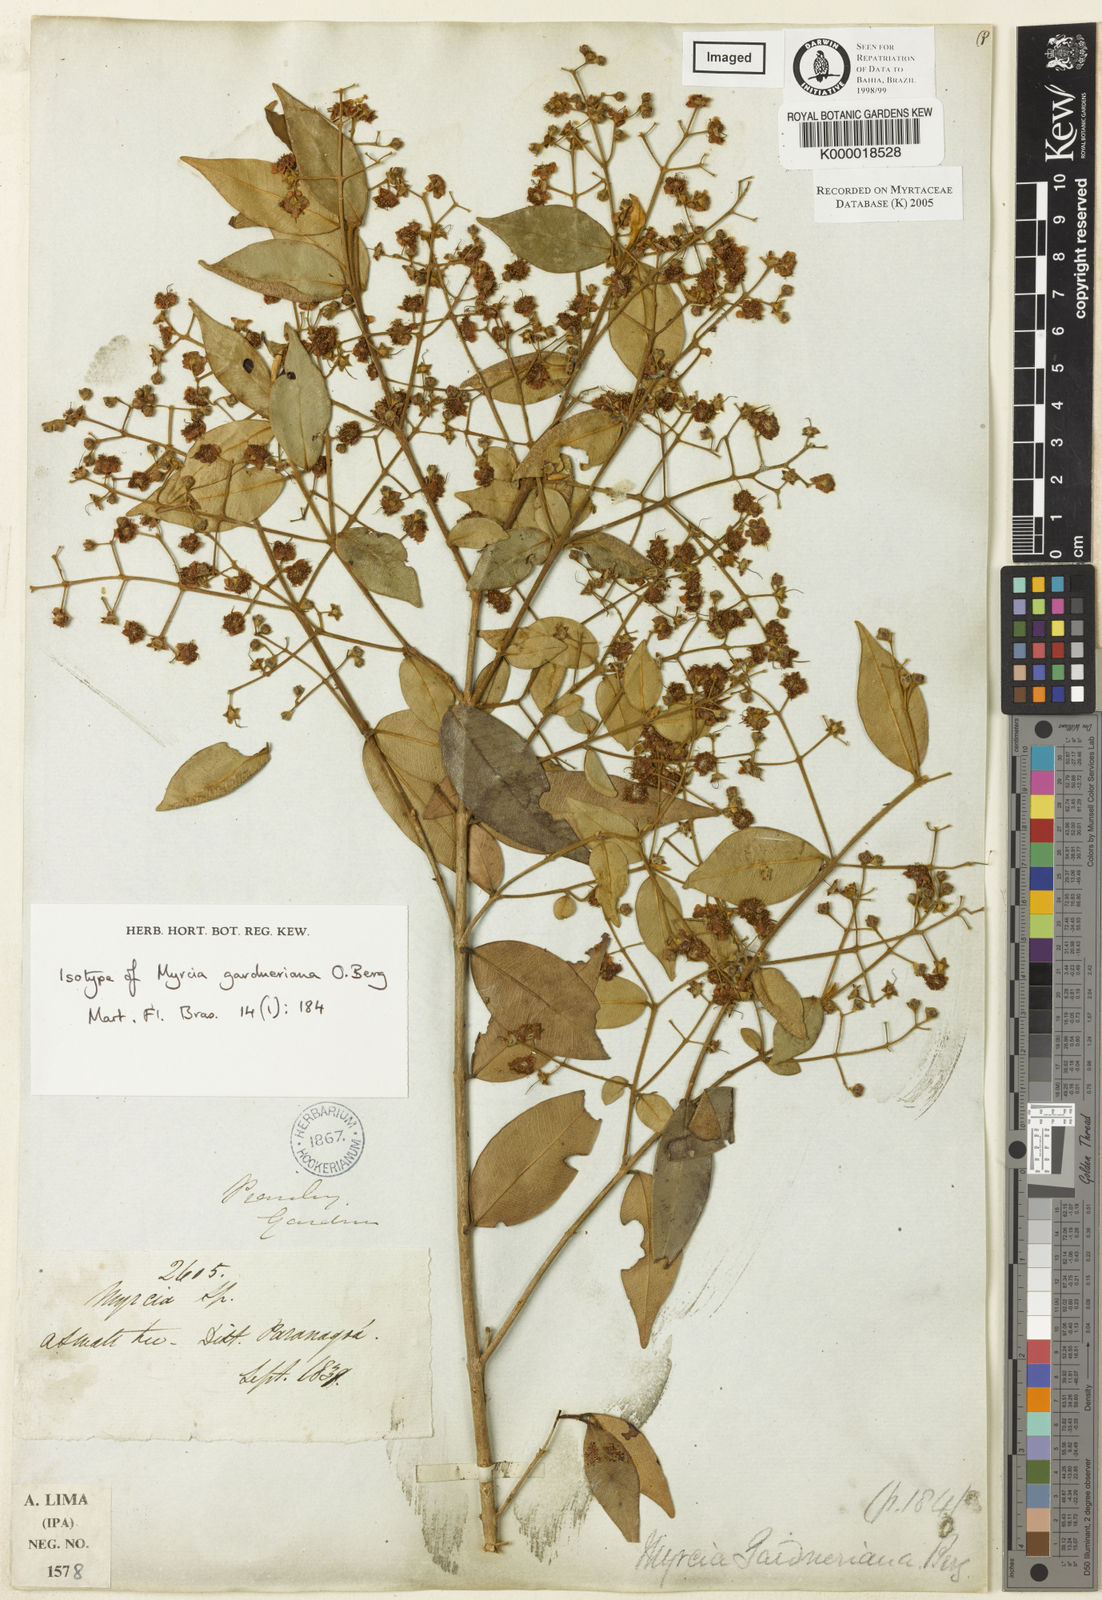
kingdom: Plantae
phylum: Tracheophyta
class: Magnoliopsida
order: Myrtales
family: Myrtaceae
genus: Myrcia
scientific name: Myrcia splendens
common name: Surinam cherry
